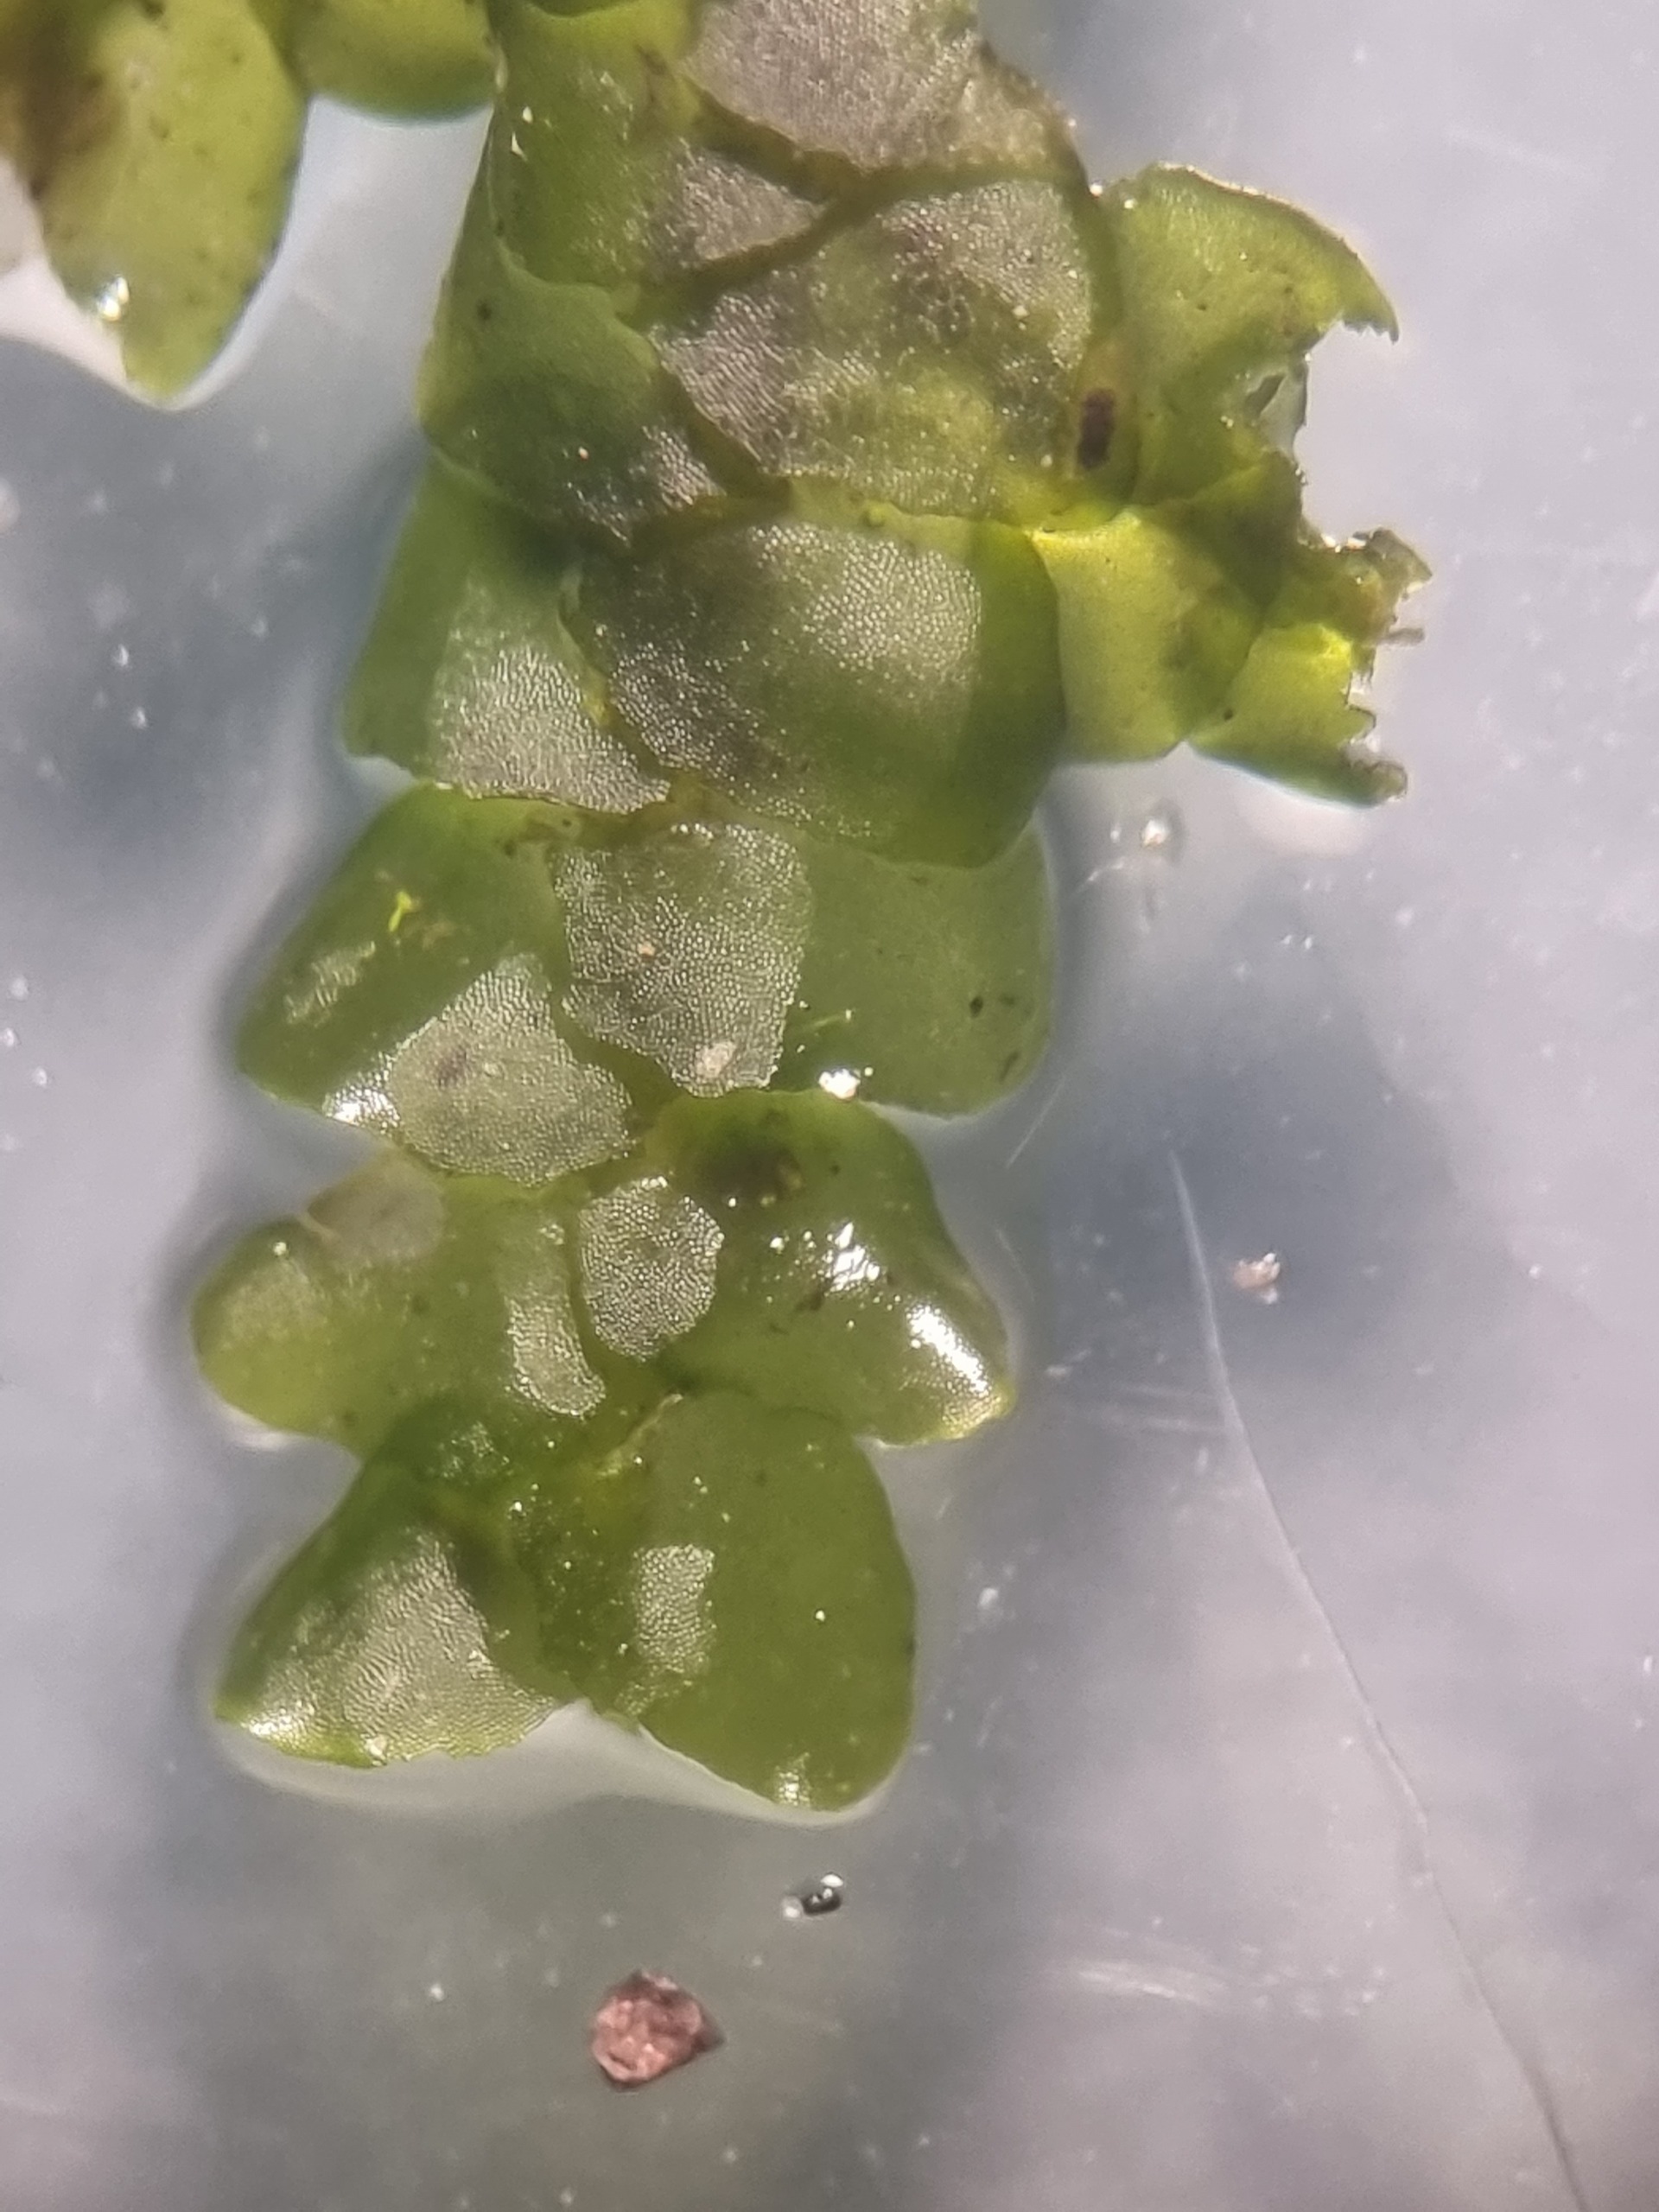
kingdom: Plantae
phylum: Marchantiophyta
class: Jungermanniopsida
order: Porellales
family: Porellaceae
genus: Porella
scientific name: Porella cordaeana
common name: Bæk-skælryg
